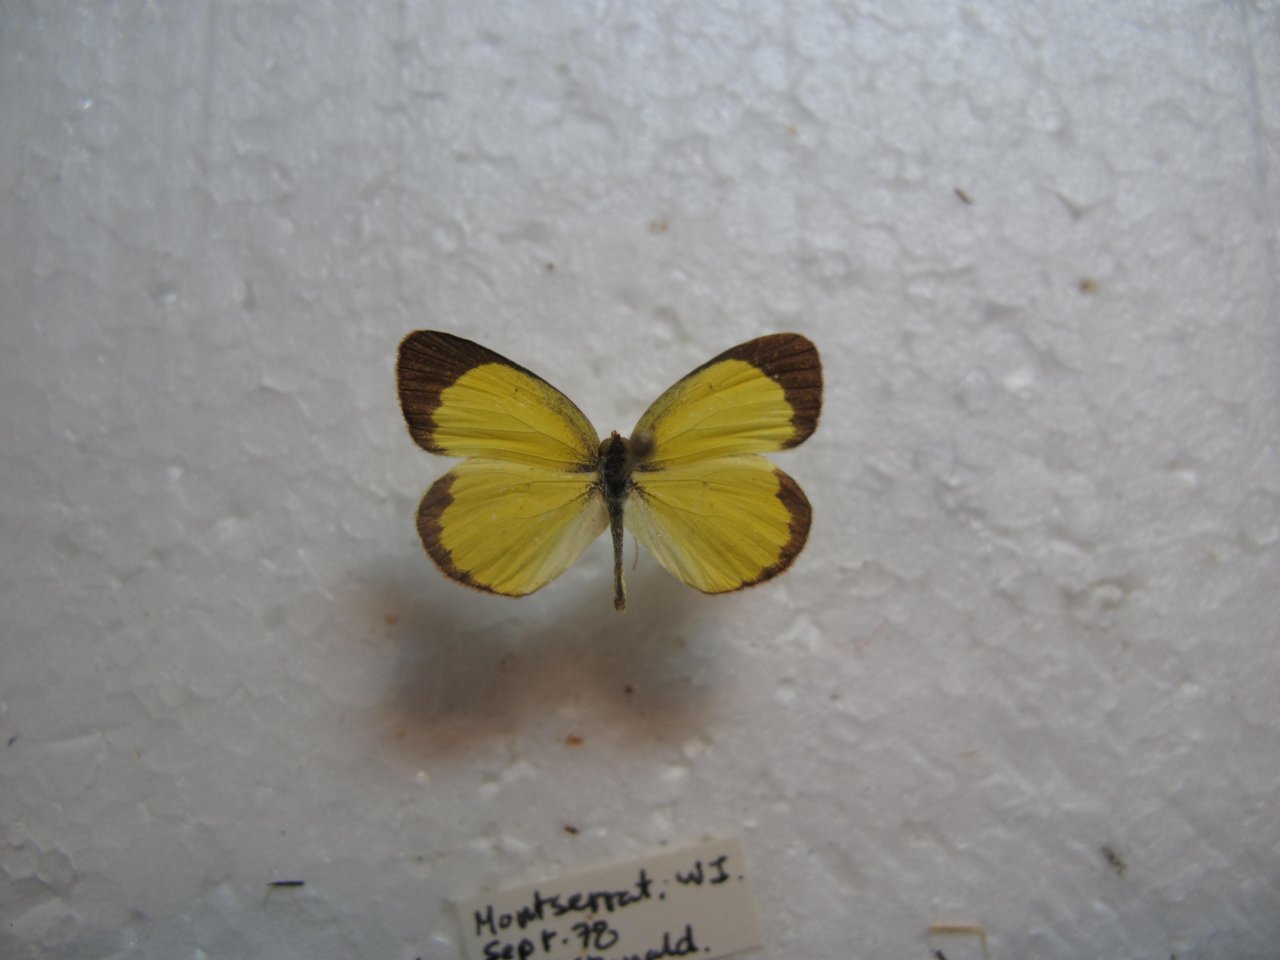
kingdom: Animalia
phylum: Arthropoda
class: Insecta
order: Lepidoptera
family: Pieridae
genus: Pyrisitia
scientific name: Pyrisitia lisa
